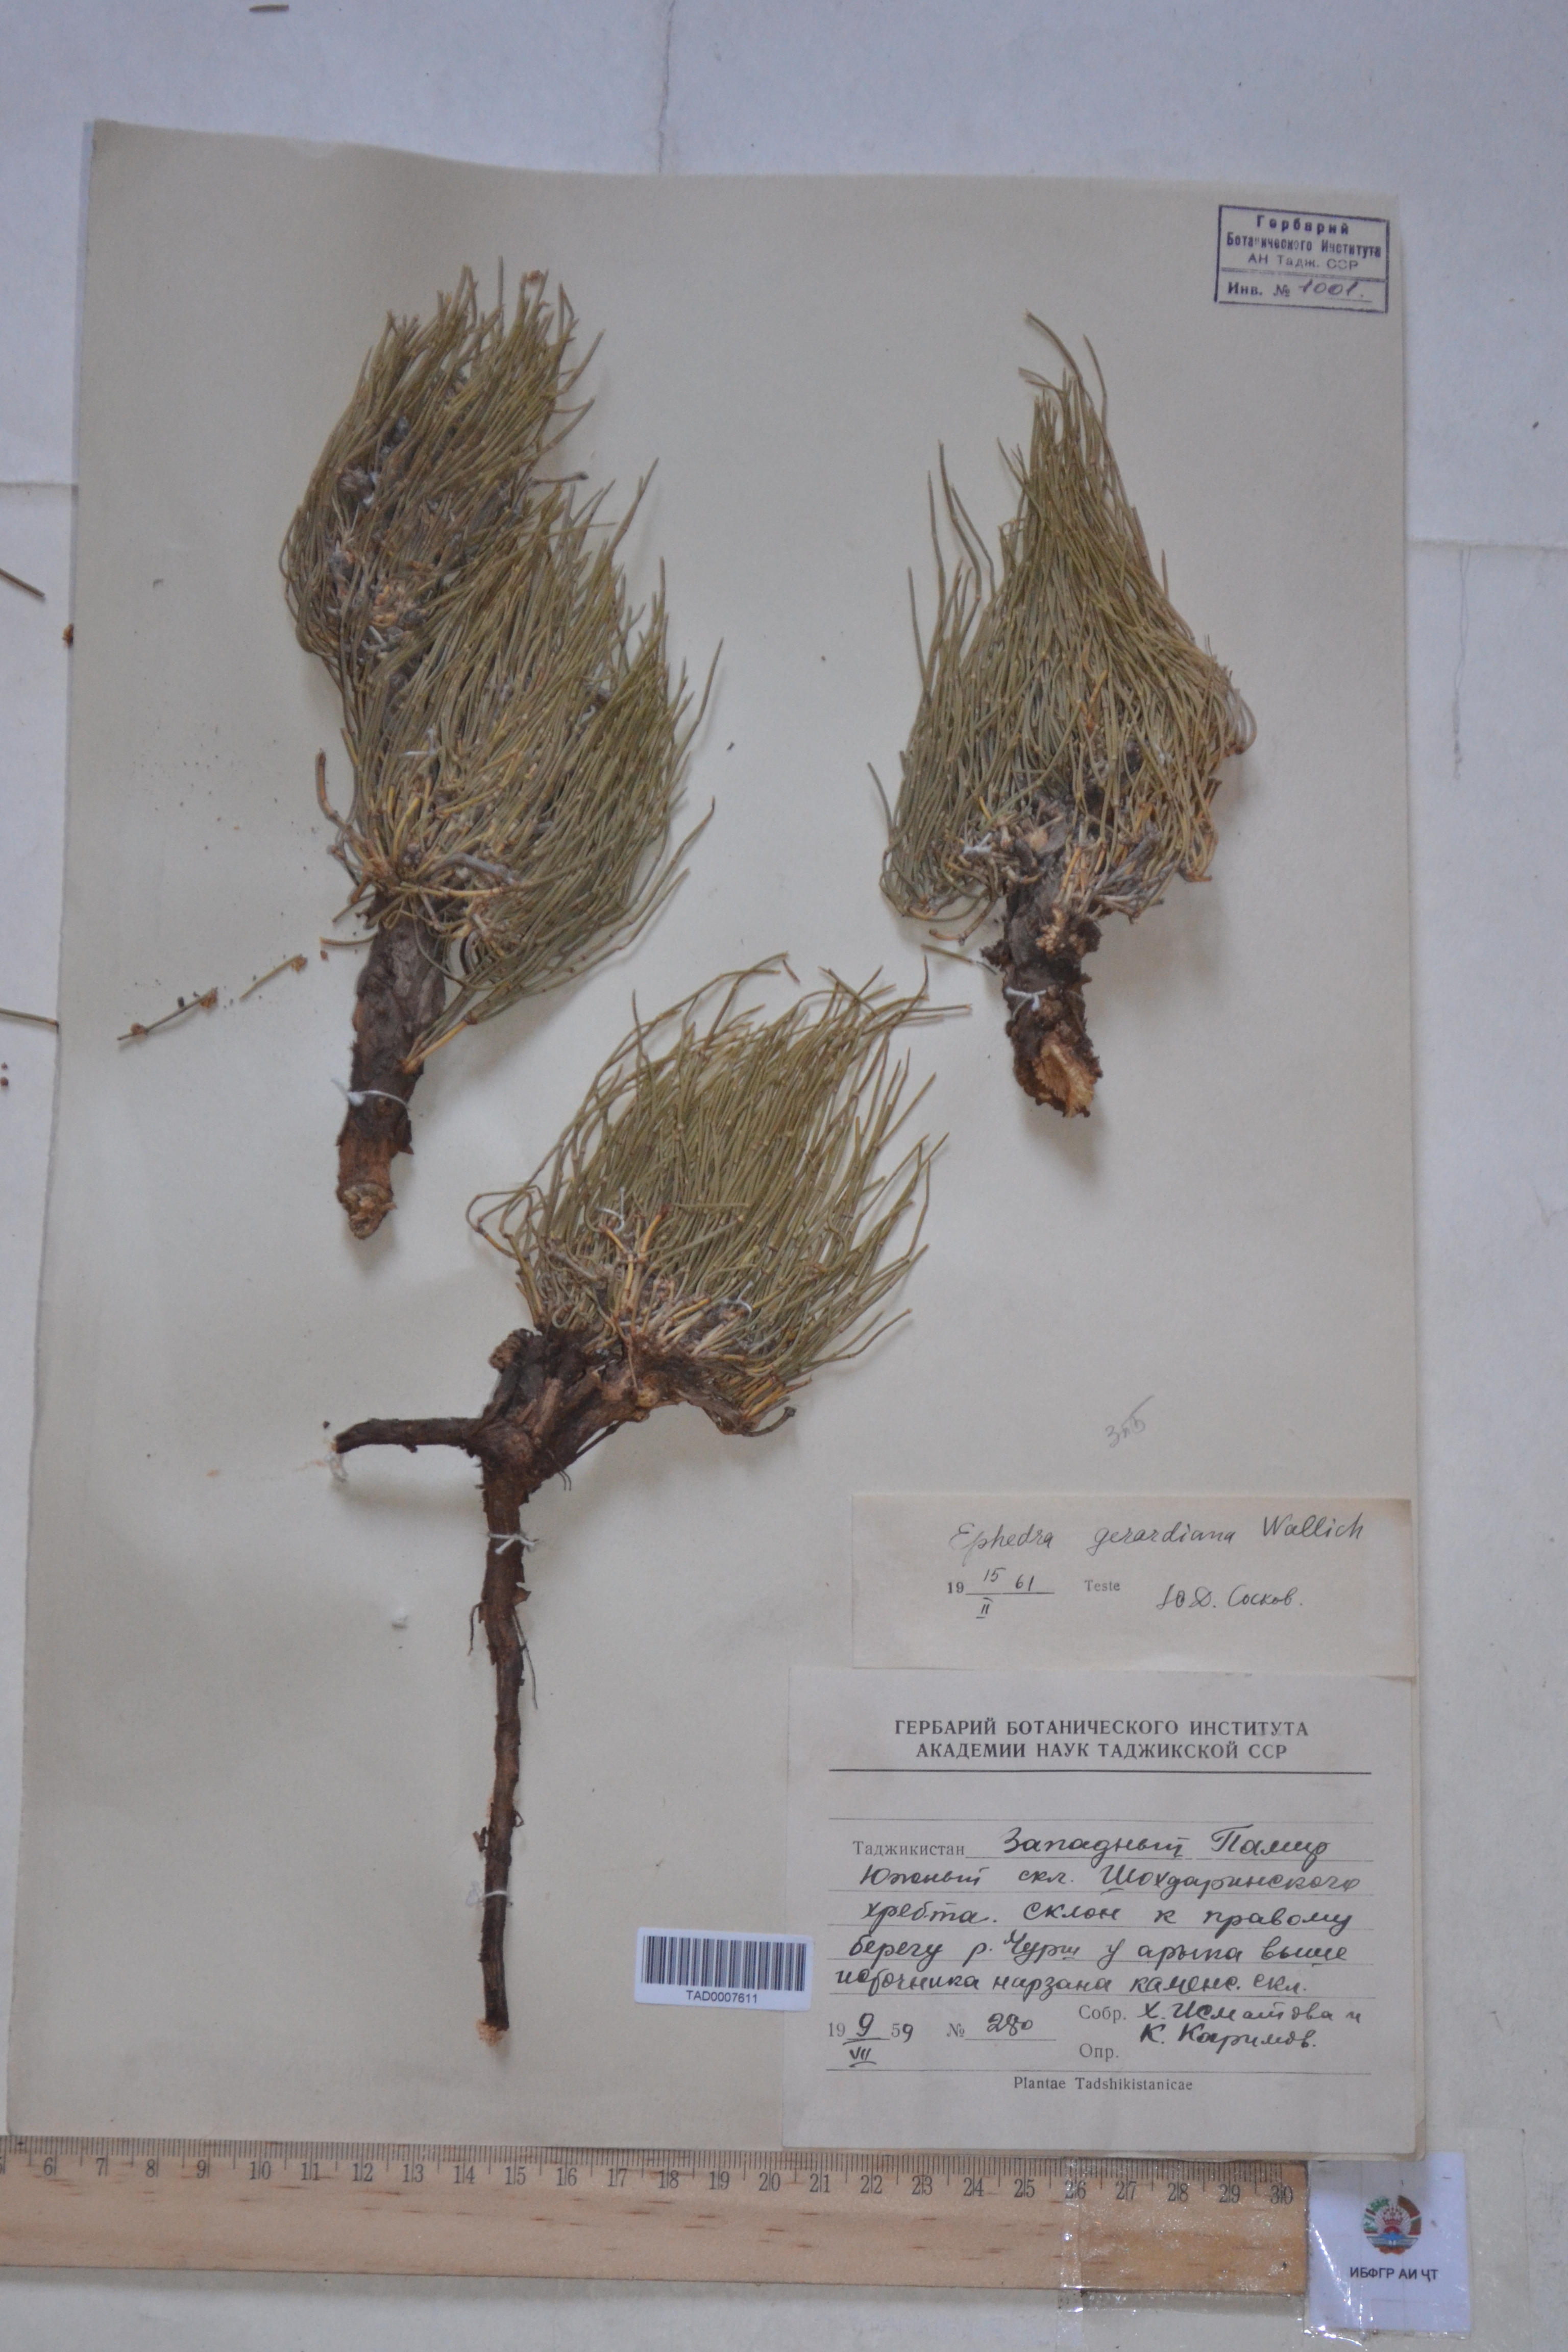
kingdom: Plantae
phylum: Tracheophyta
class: Gnetopsida
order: Ephedrales
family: Ephedraceae
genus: Ephedra
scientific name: Ephedra gerardiana
